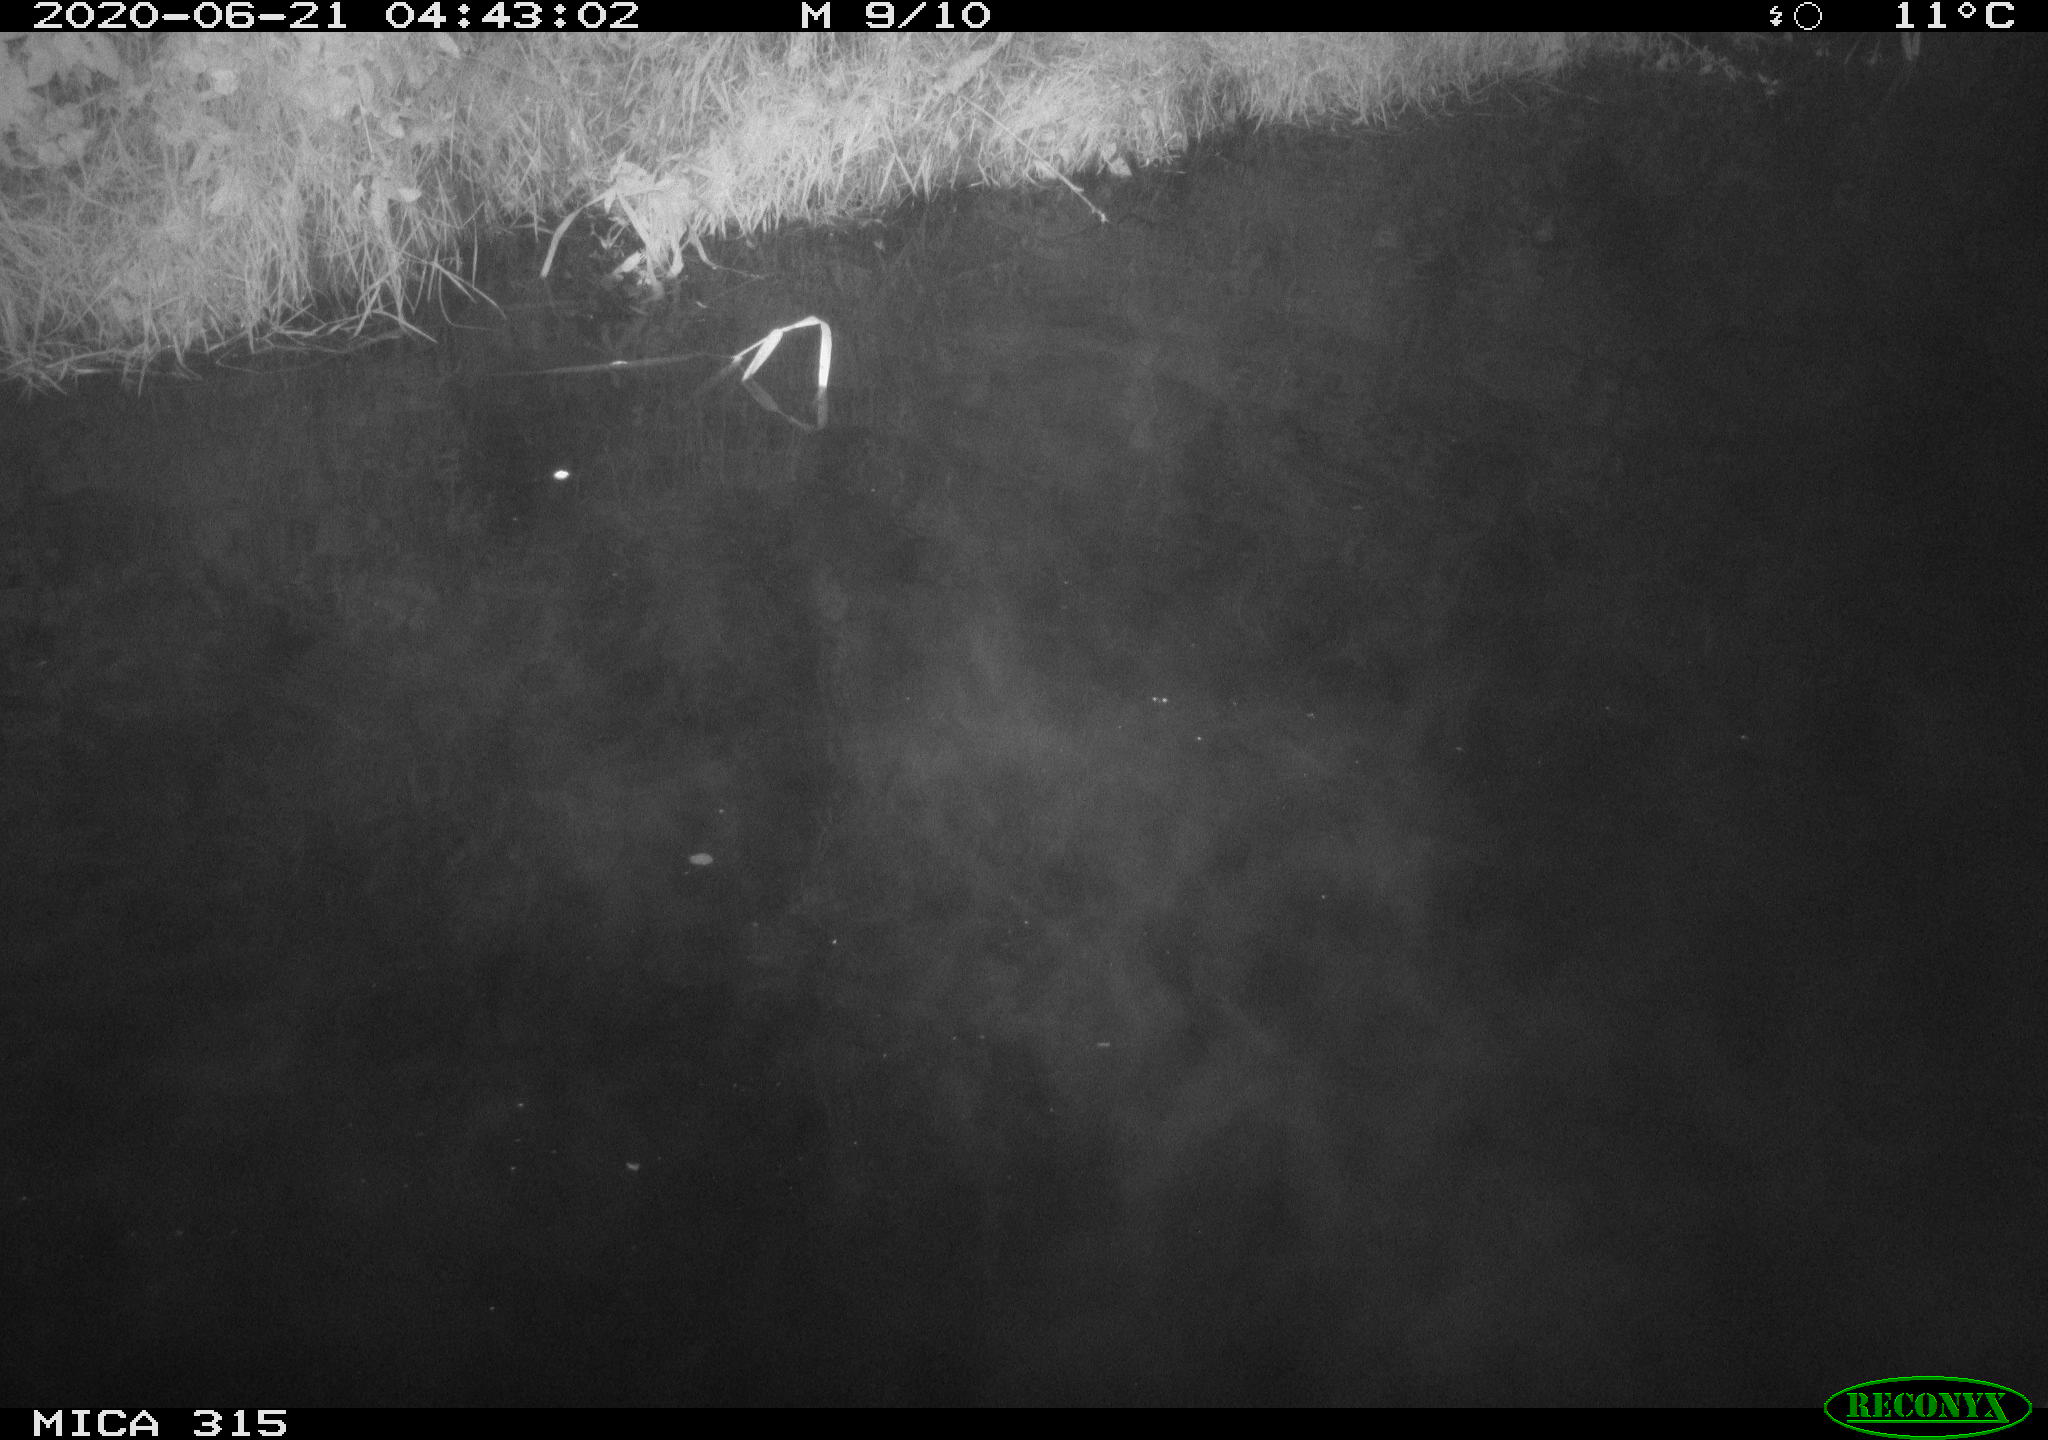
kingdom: Animalia
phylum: Chordata
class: Aves
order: Anseriformes
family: Anatidae
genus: Anas
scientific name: Anas platyrhynchos
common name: Mallard
